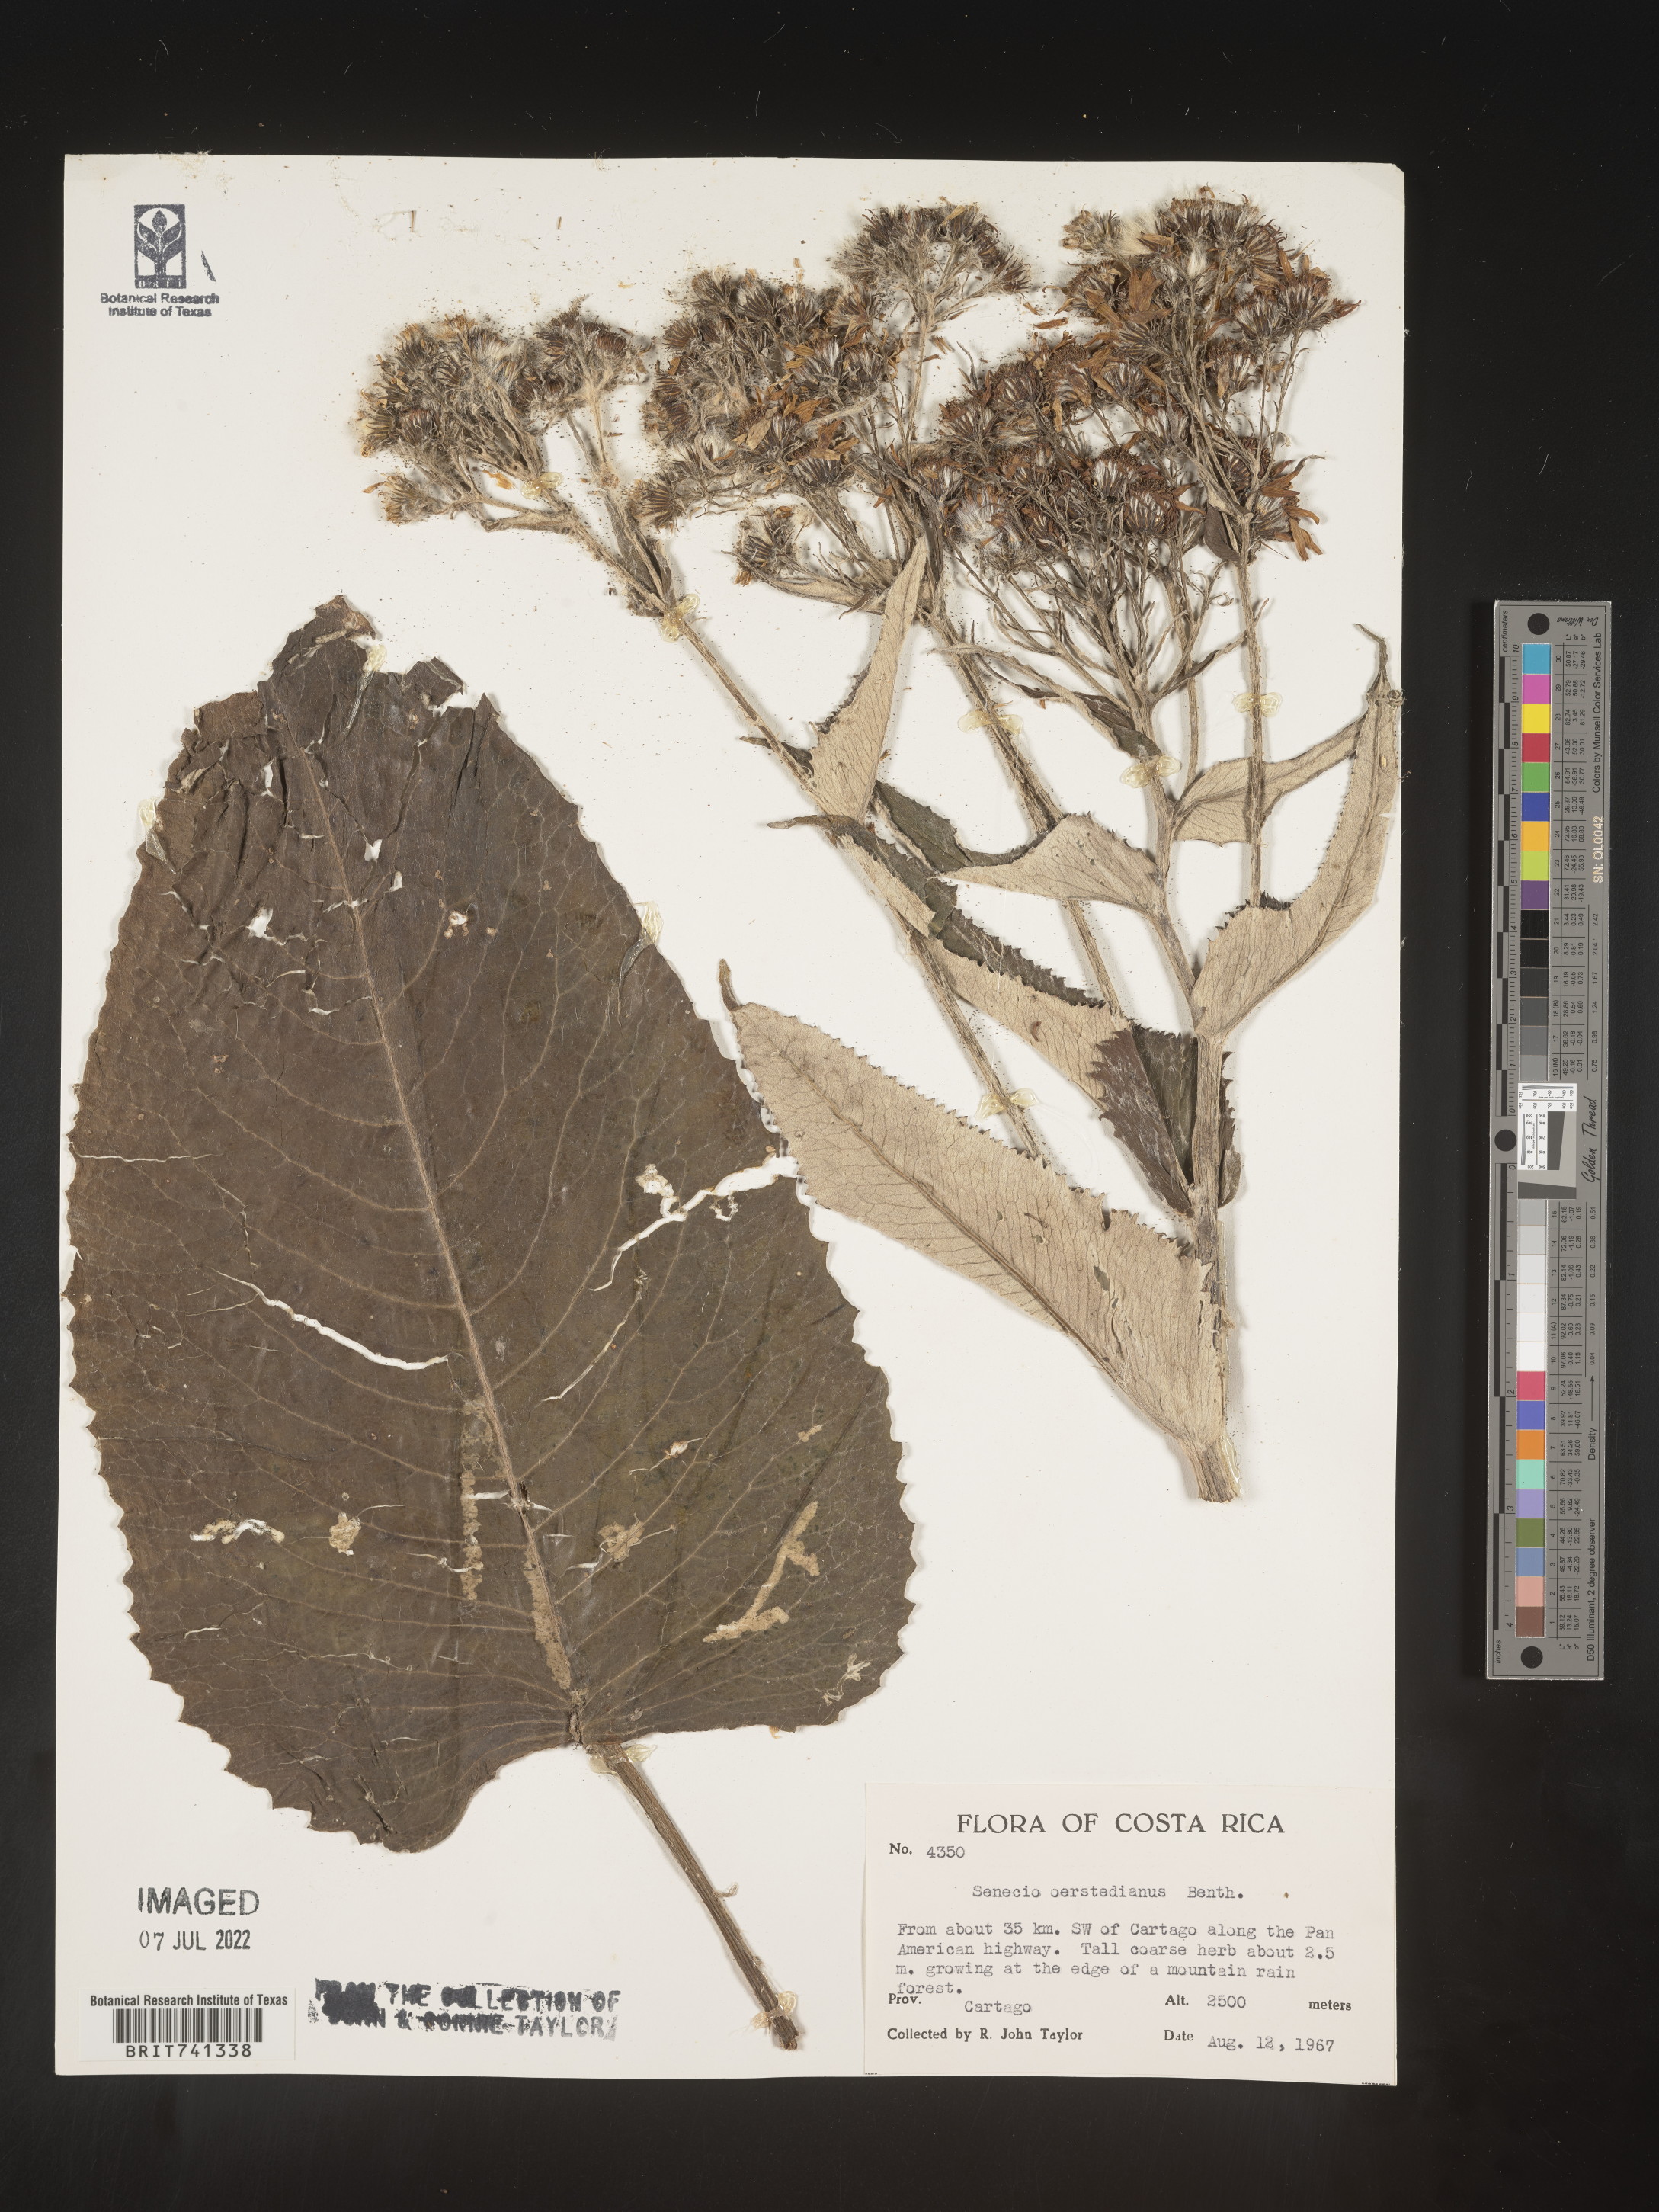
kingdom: Plantae
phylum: Tracheophyta
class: Magnoliopsida
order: Asterales
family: Asteraceae
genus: Senecio
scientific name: Senecio
